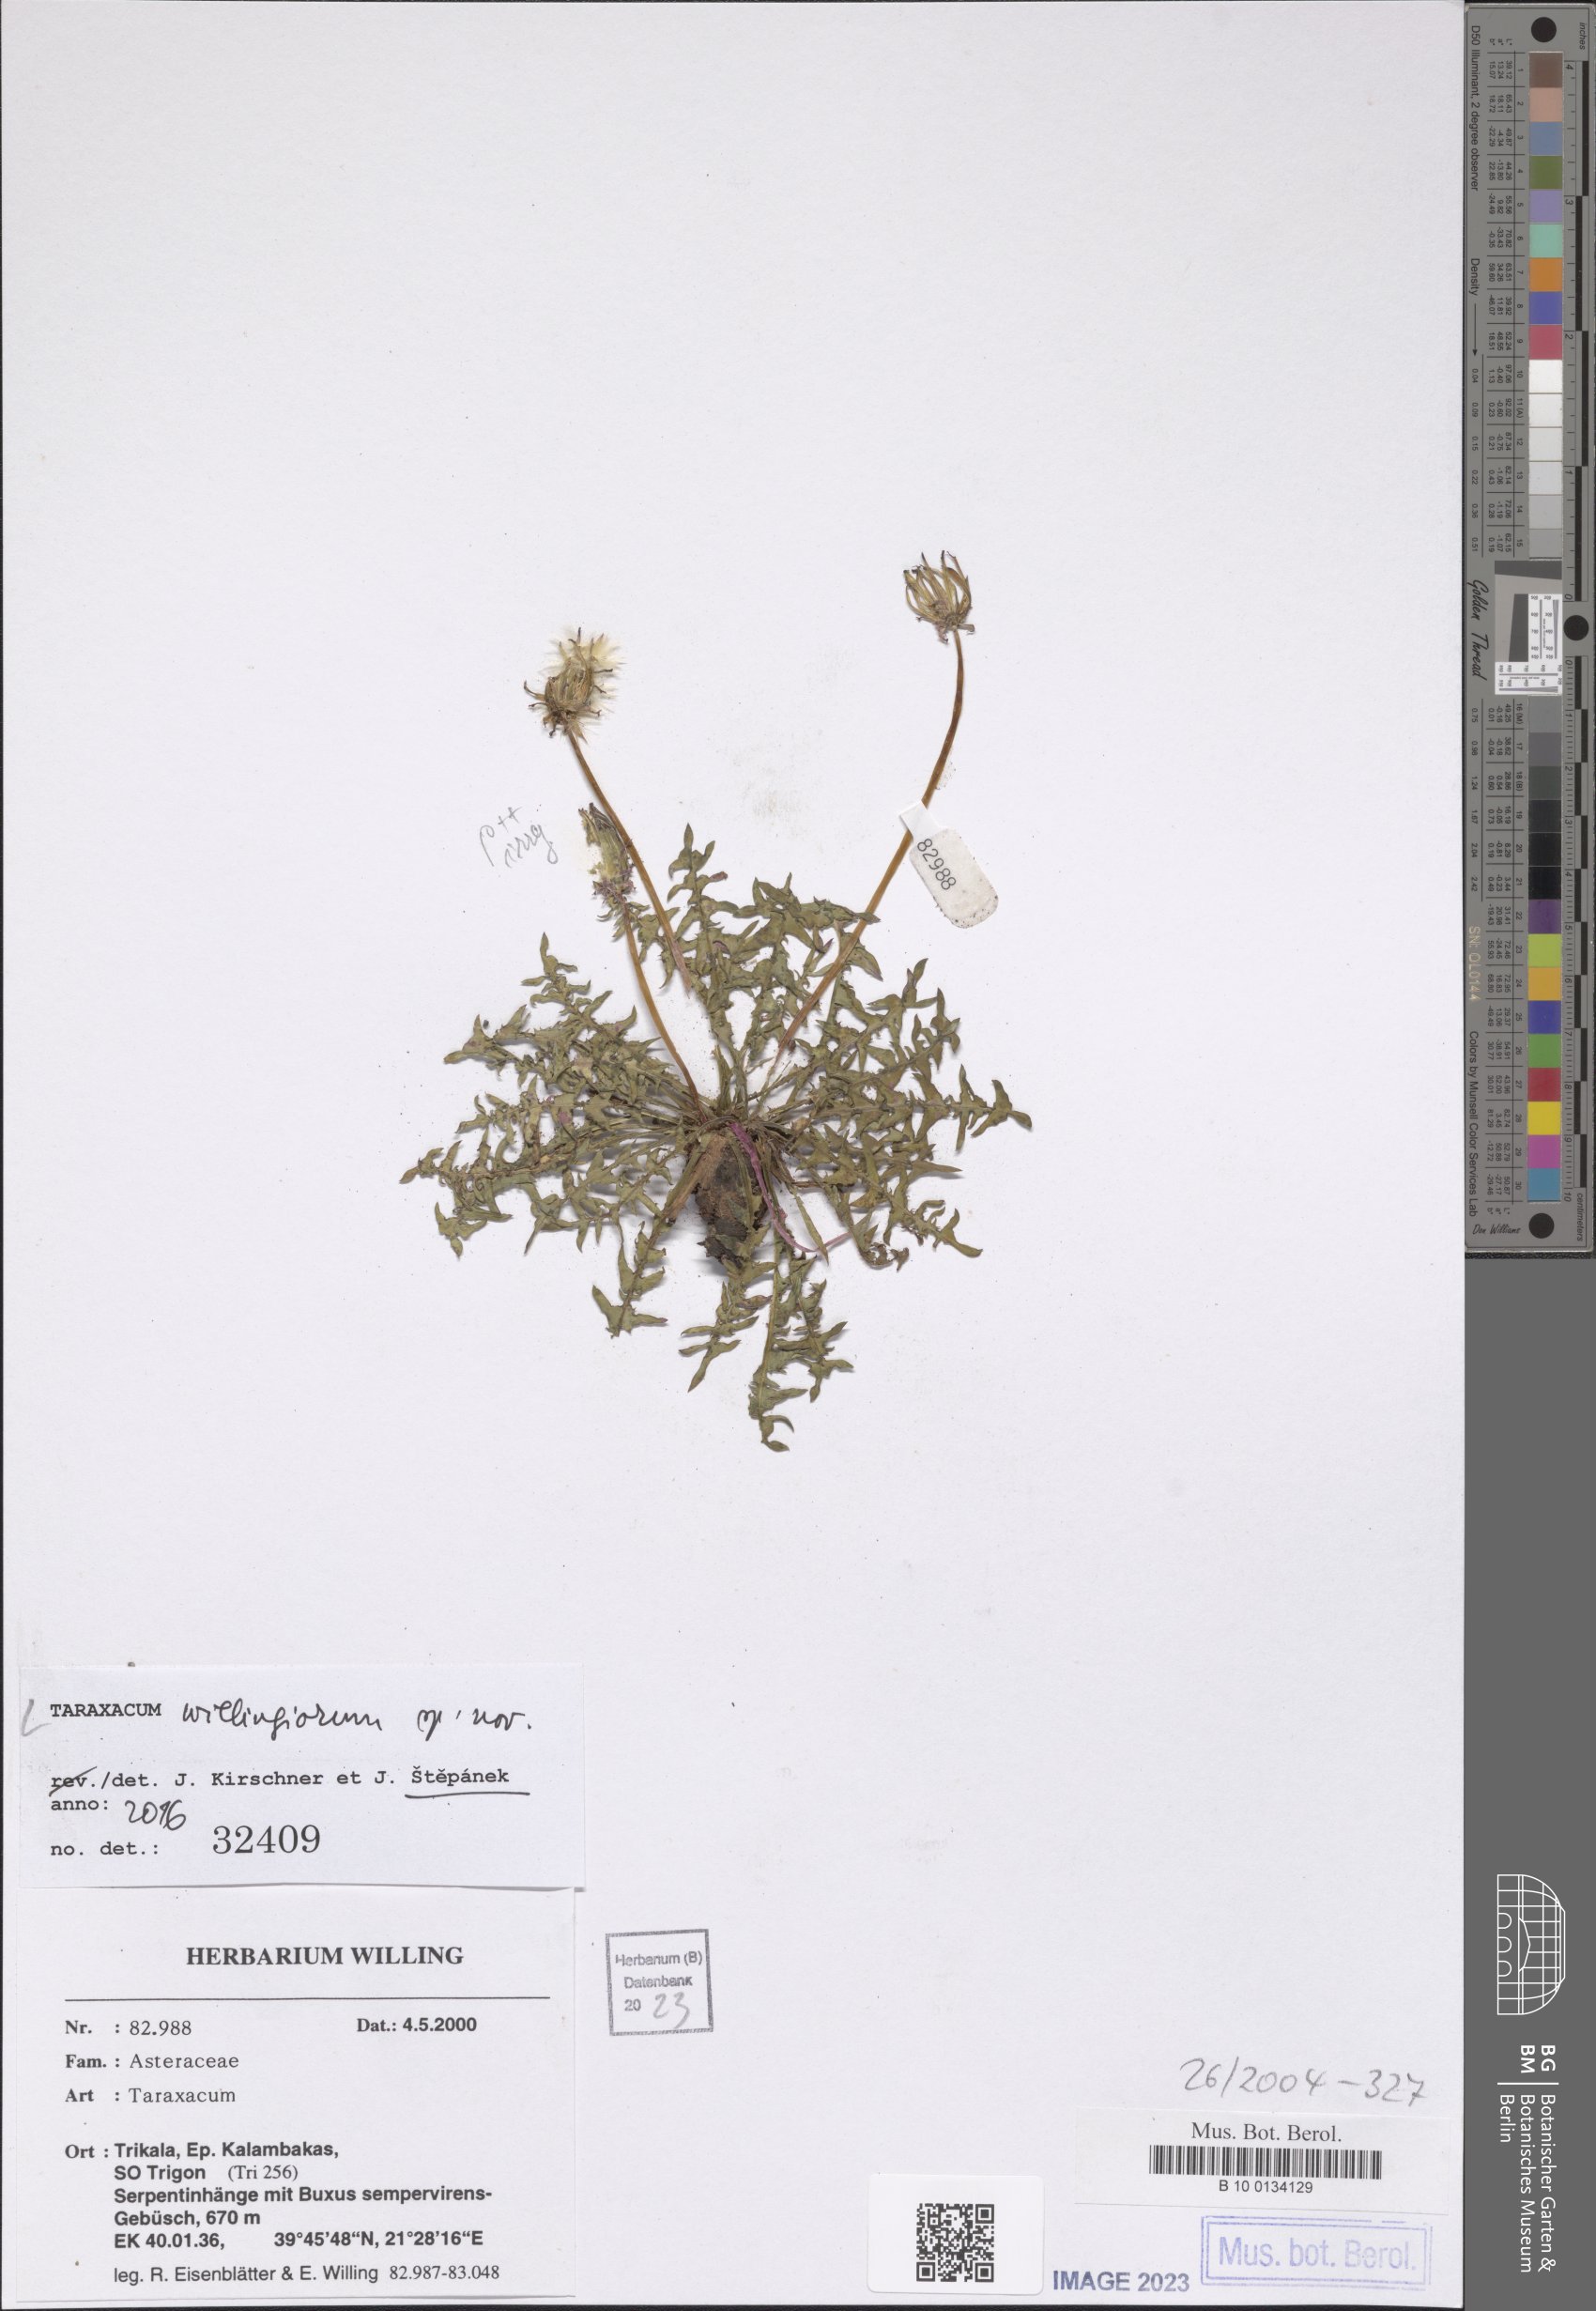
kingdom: Plantae
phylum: Tracheophyta
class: Magnoliopsida
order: Asterales
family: Asteraceae
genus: Taraxacum
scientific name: Taraxacum
